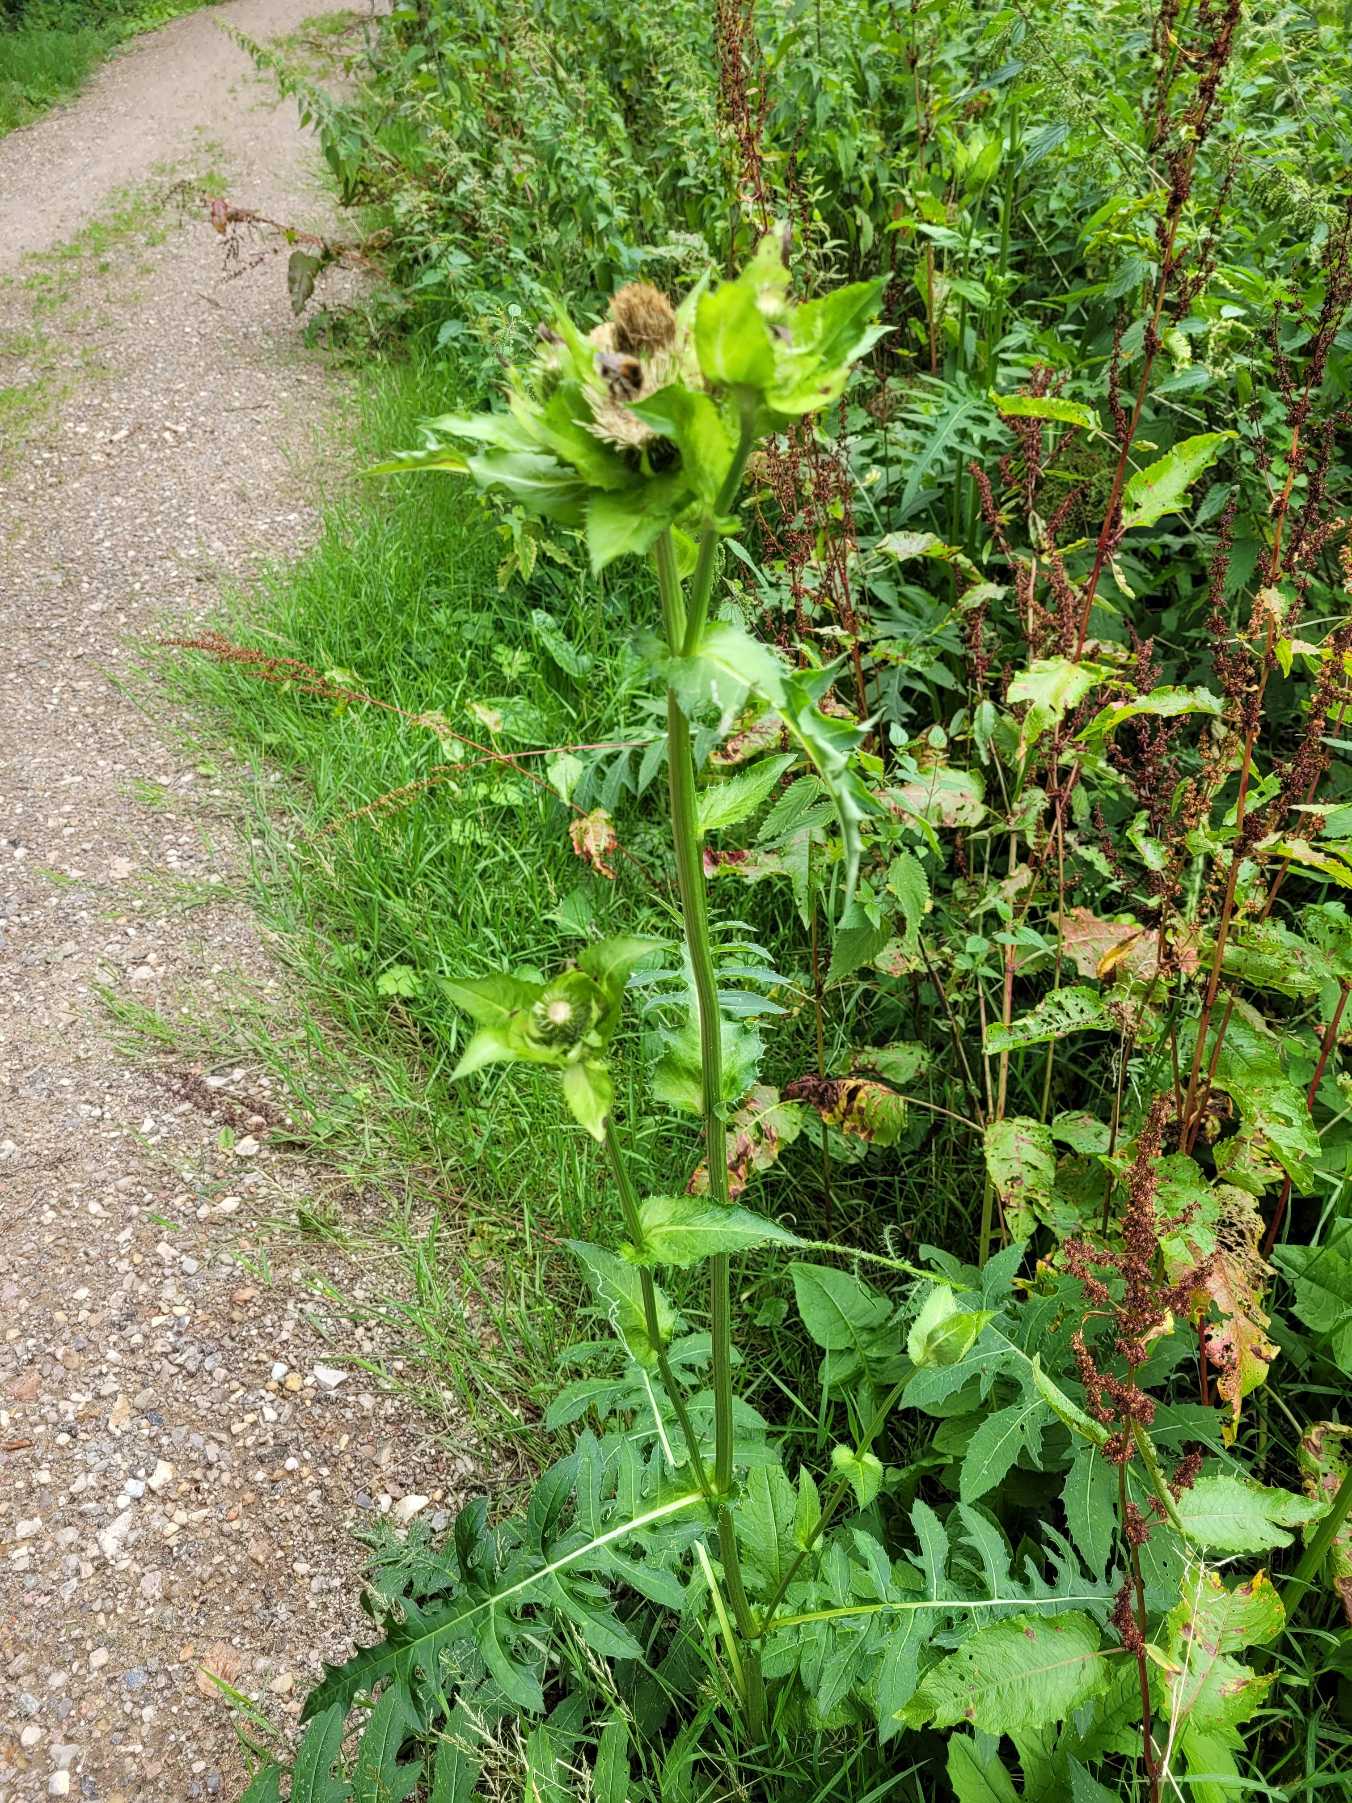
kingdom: Plantae
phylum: Tracheophyta
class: Magnoliopsida
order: Asterales
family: Asteraceae
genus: Cirsium
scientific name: Cirsium oleraceum
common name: Kål-tidsel
